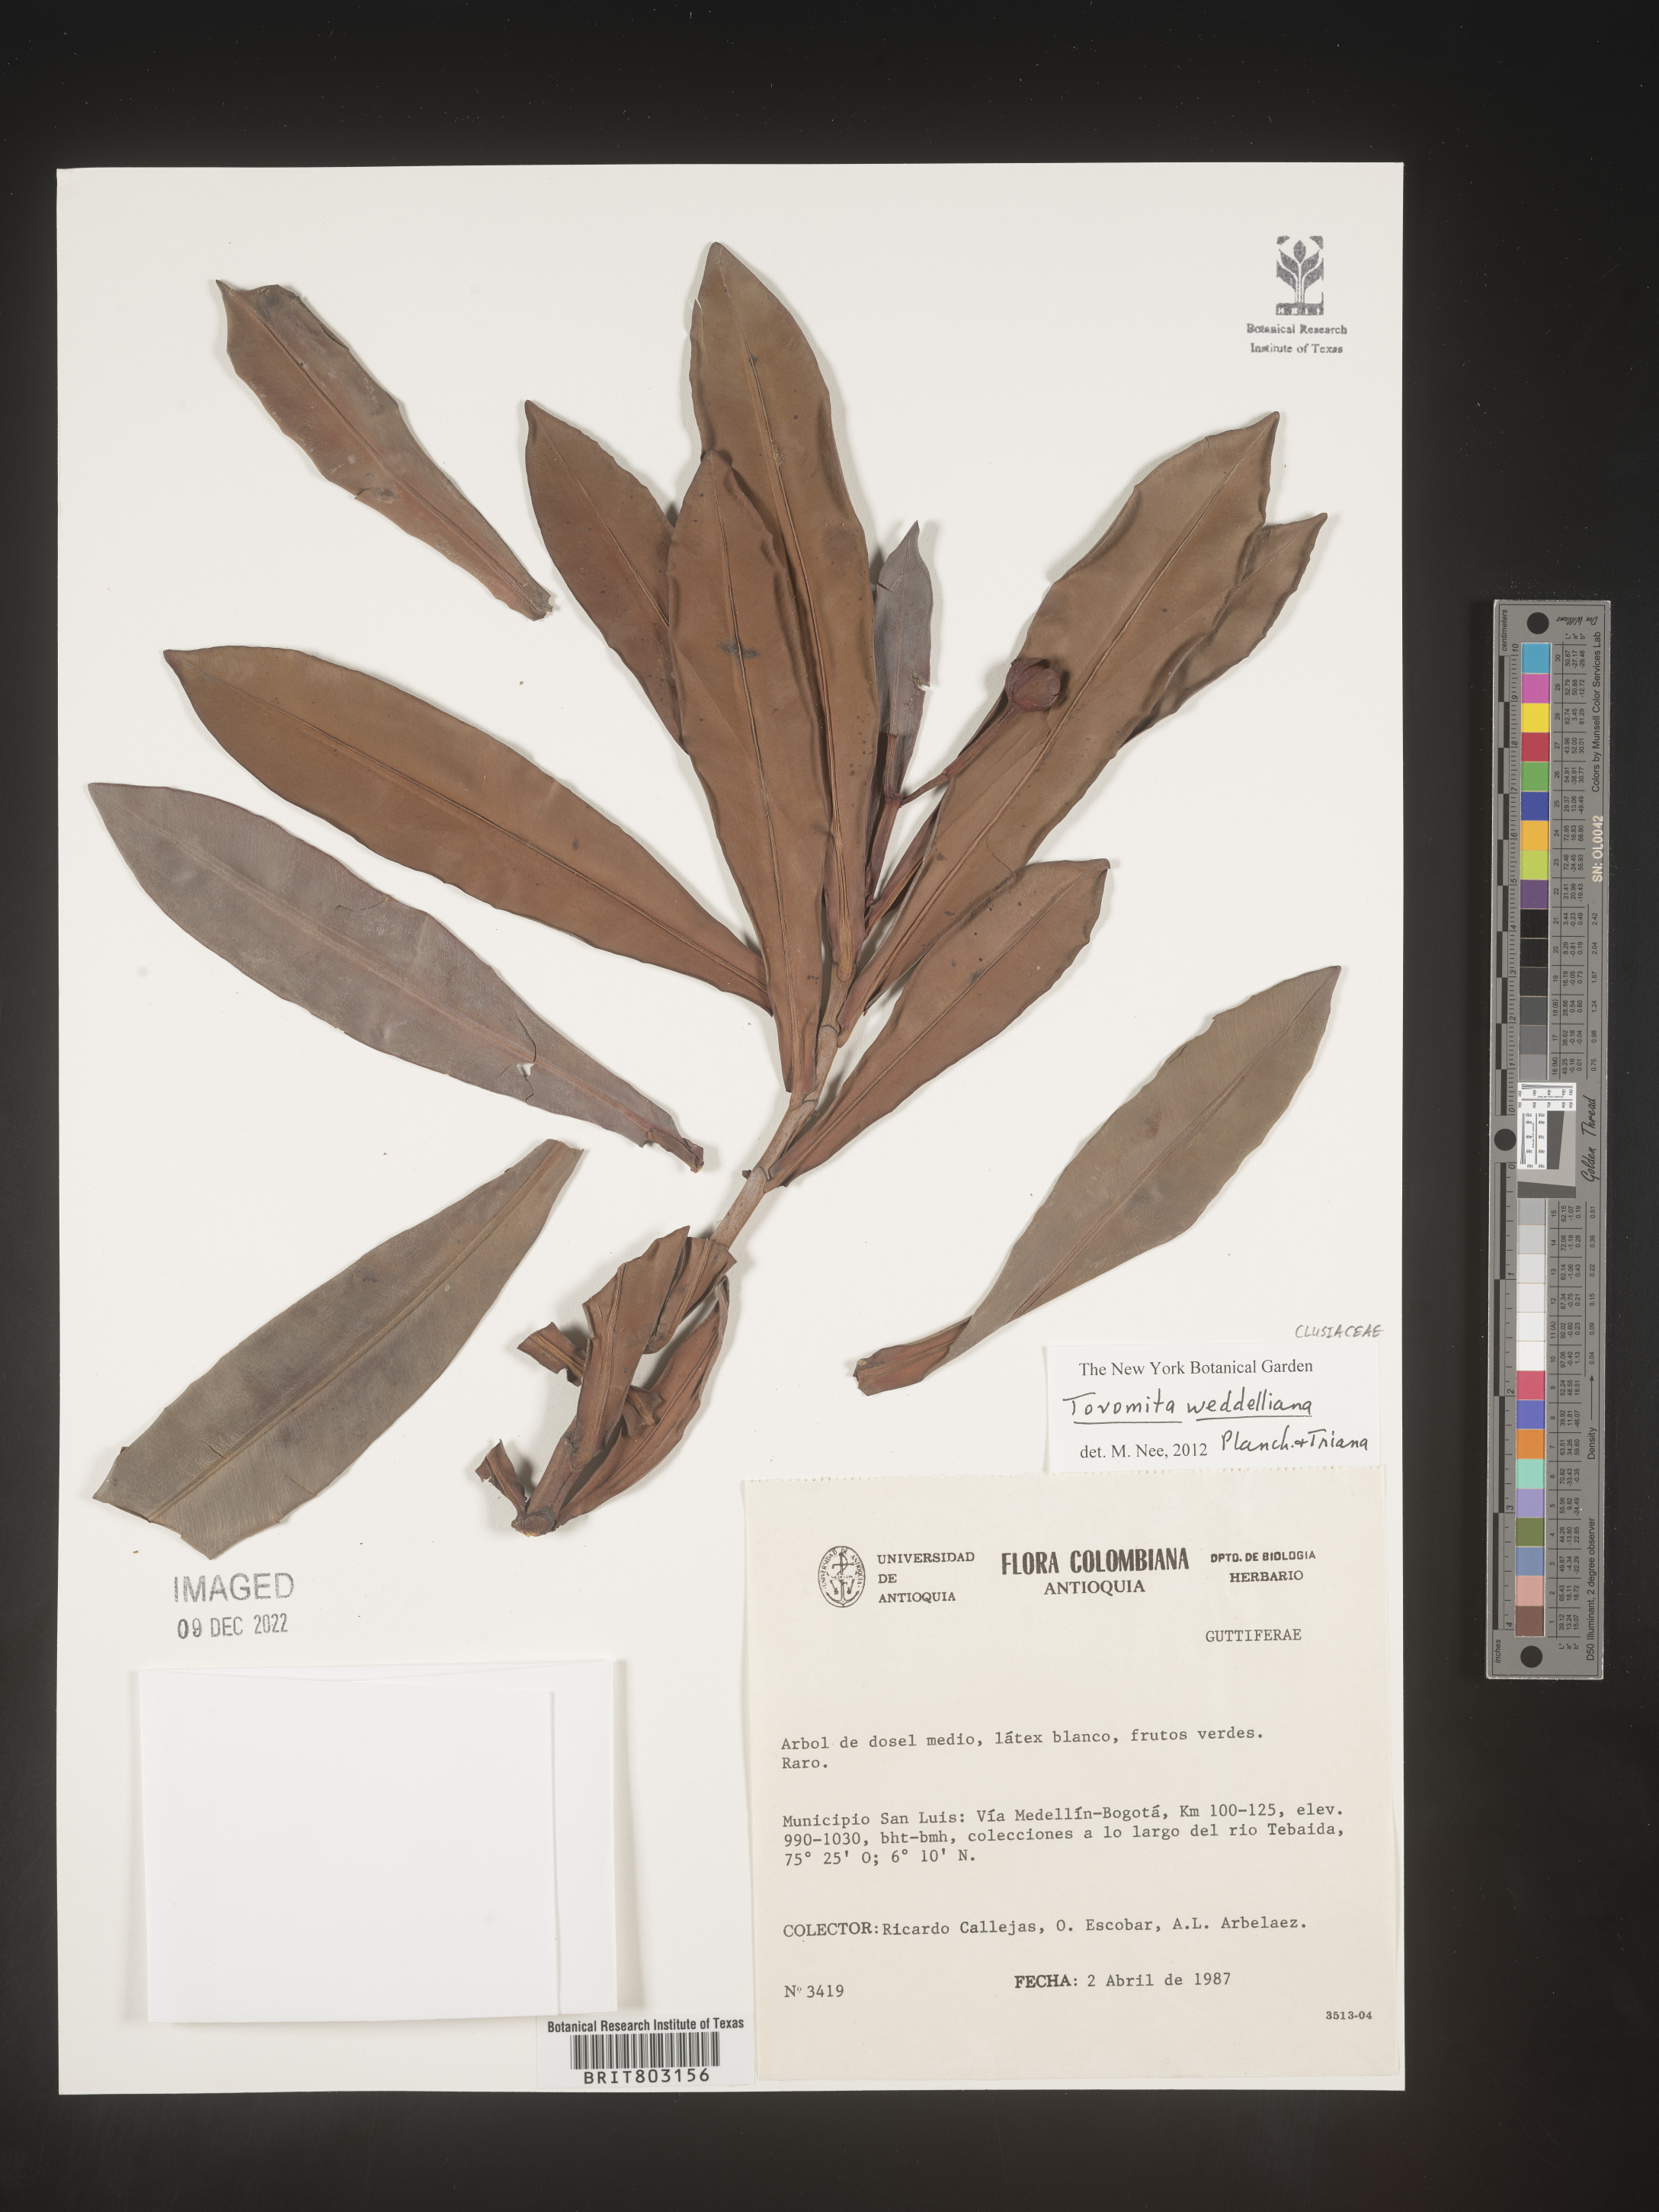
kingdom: Plantae
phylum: Tracheophyta
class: Magnoliopsida
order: Malpighiales
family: Clusiaceae
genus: Arawakia
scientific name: Arawakia weddelliana
